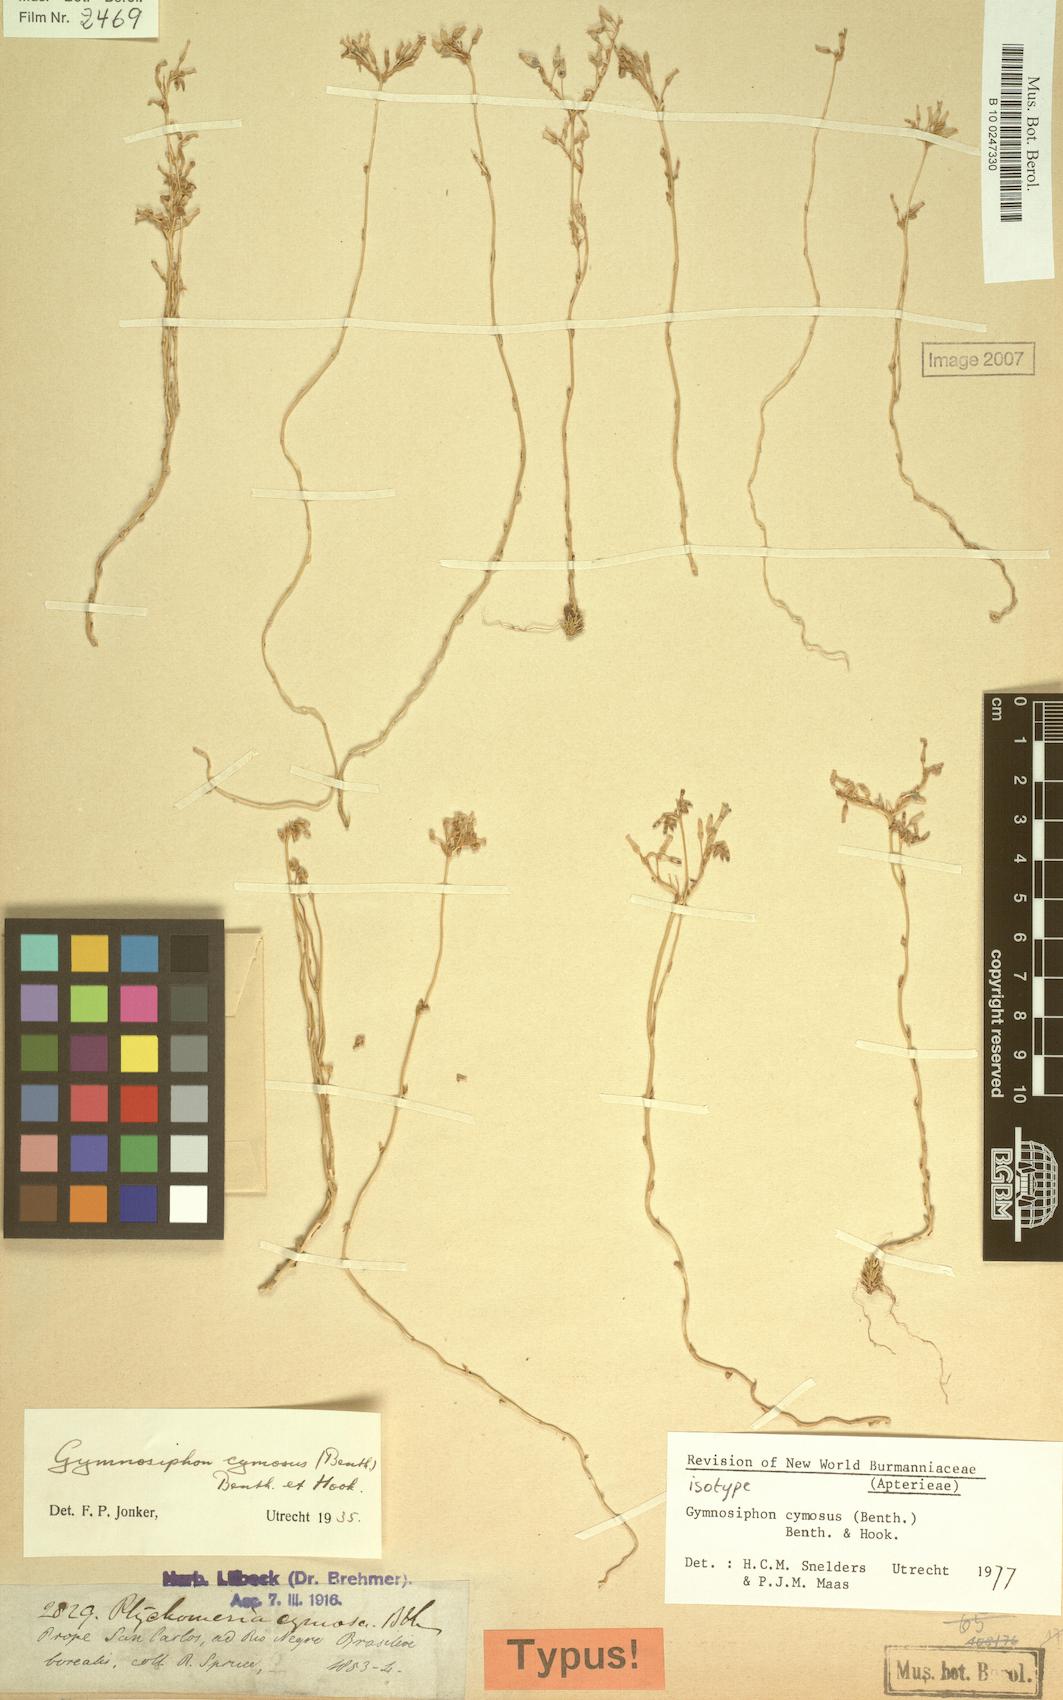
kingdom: Plantae
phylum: Tracheophyta
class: Liliopsida
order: Dioscoreales
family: Burmanniaceae
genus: Gymnosiphon
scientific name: Gymnosiphon cymosus
